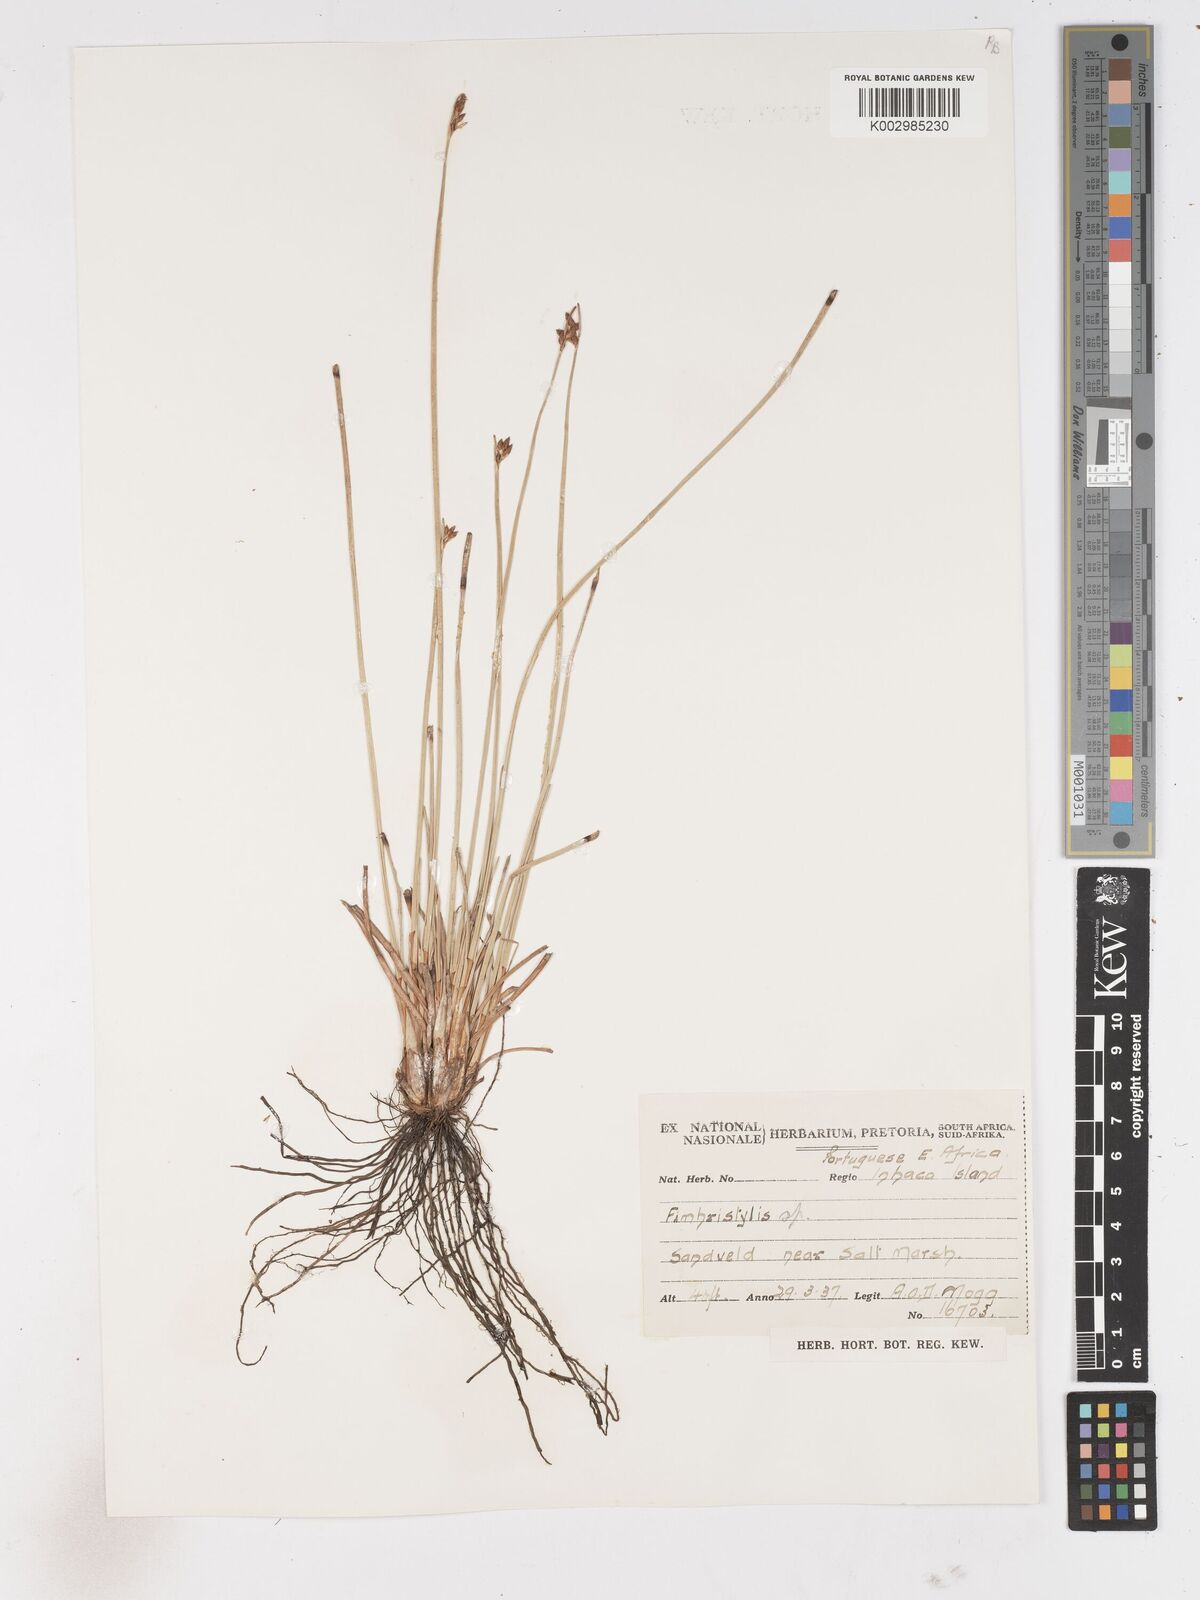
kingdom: Plantae
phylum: Tracheophyta
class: Liliopsida
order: Poales
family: Cyperaceae
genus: Fimbristylis
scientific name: Fimbristylis ferruginea
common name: West indian fimbry
